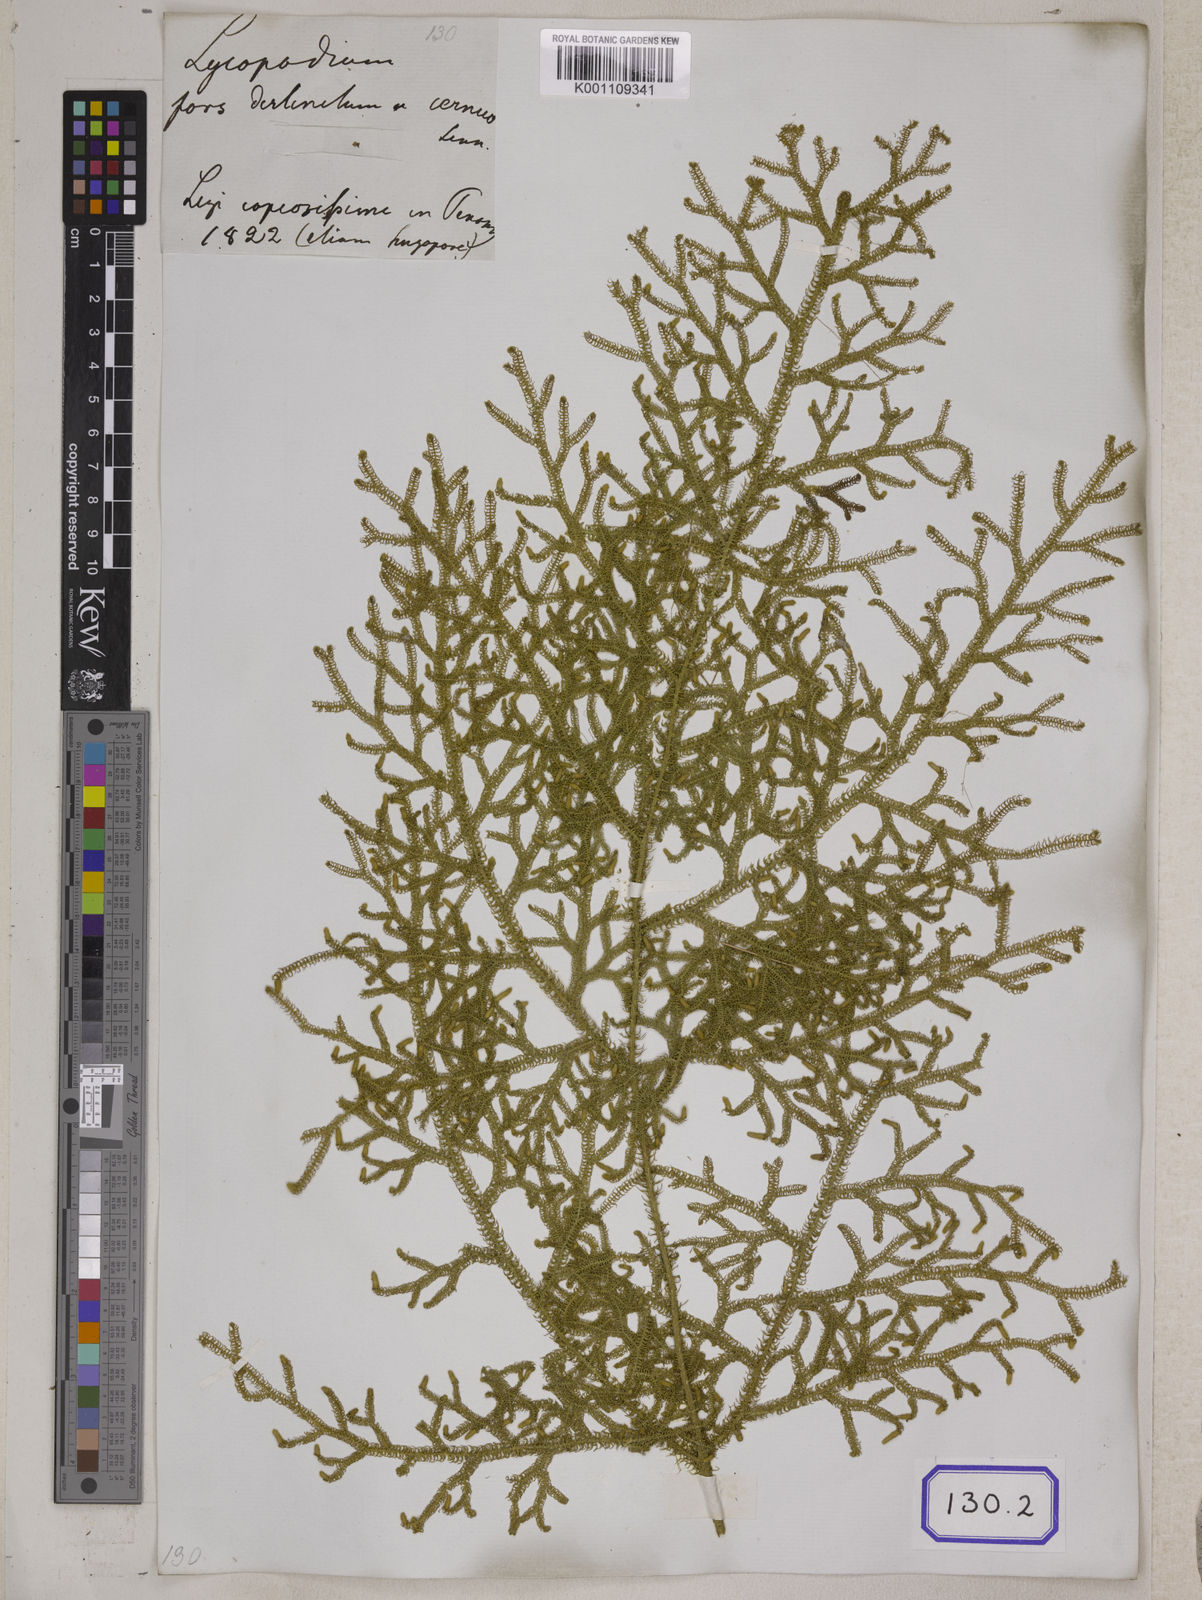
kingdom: Plantae
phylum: Tracheophyta
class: Lycopodiopsida
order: Lycopodiales
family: Lycopodiaceae
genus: Palhinhaea
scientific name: Palhinhaea cernua
